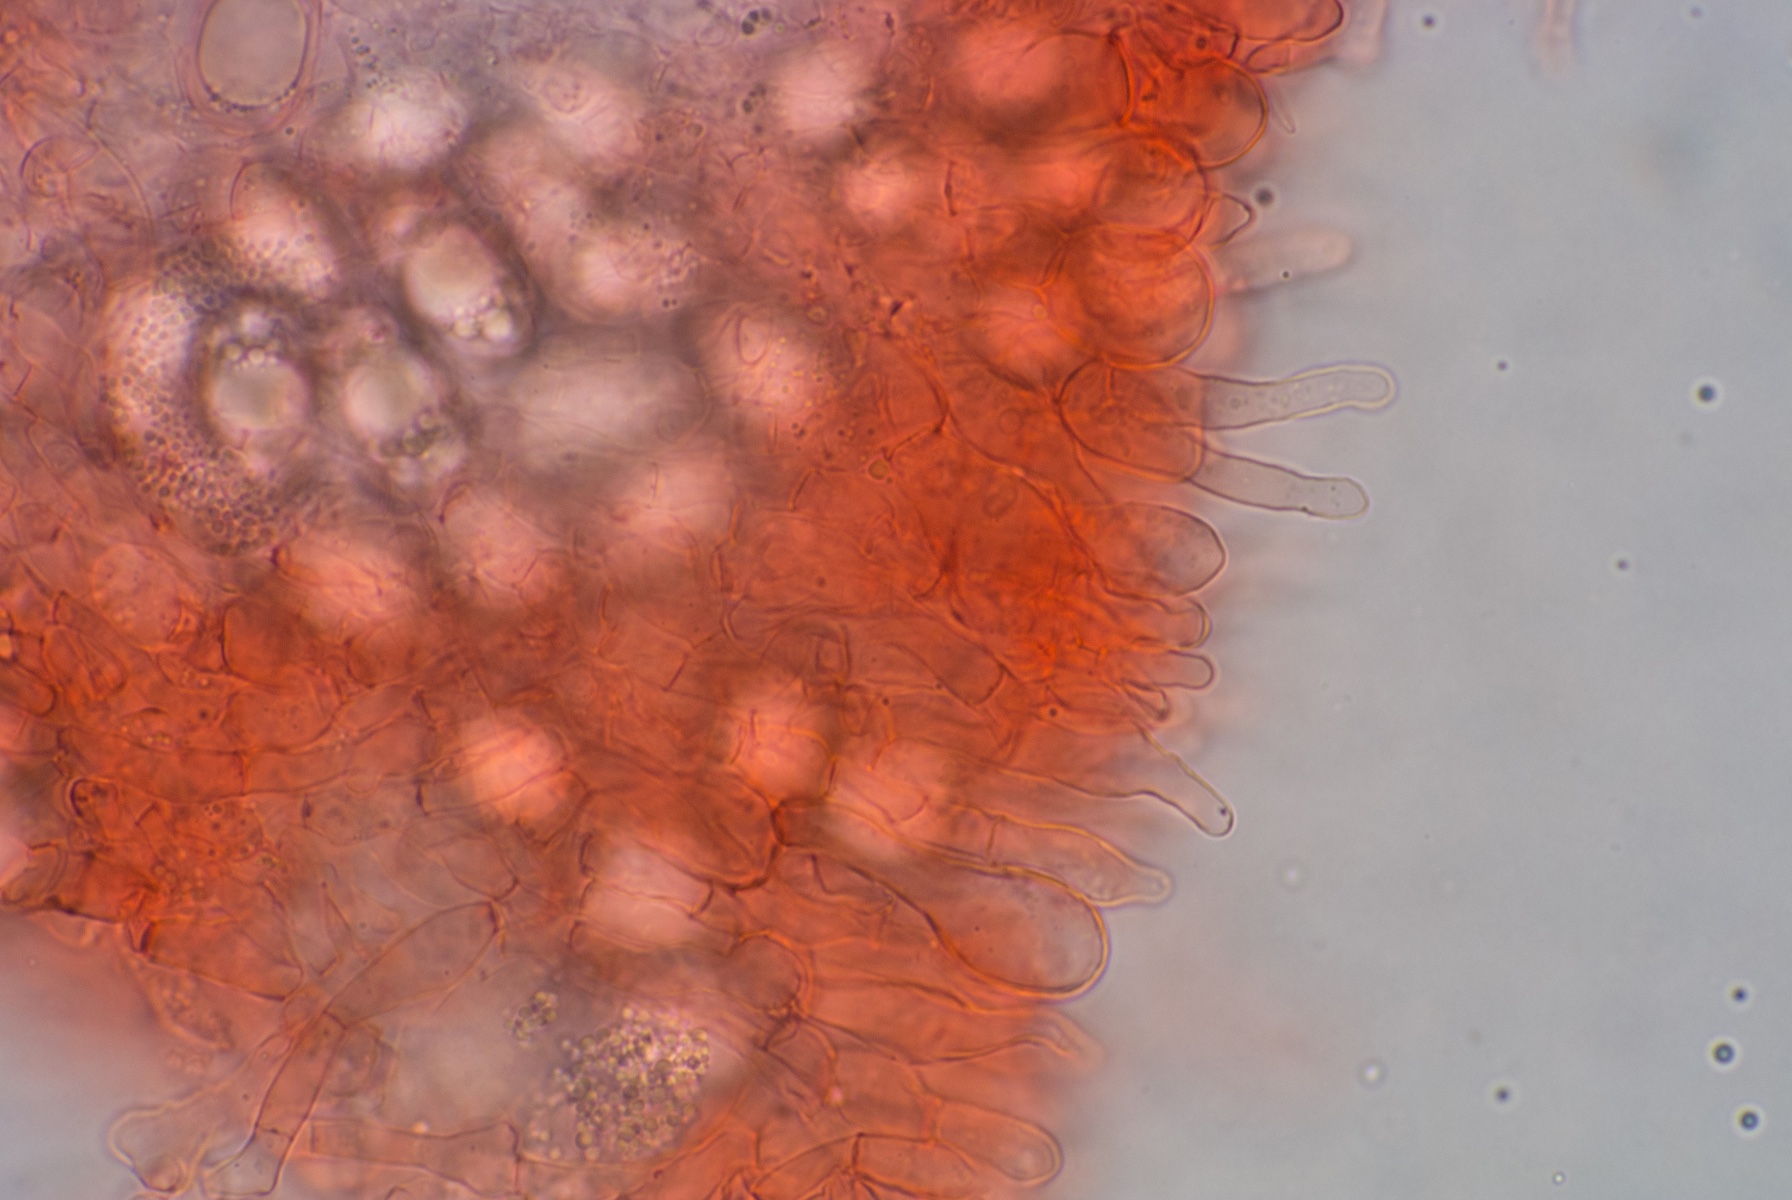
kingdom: Fungi
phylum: Ascomycota
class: Pezizomycetes
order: Pezizales
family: Helvellaceae
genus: Balsamia
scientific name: Balsamia polysperma
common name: bredsporet nøddetrøffel
